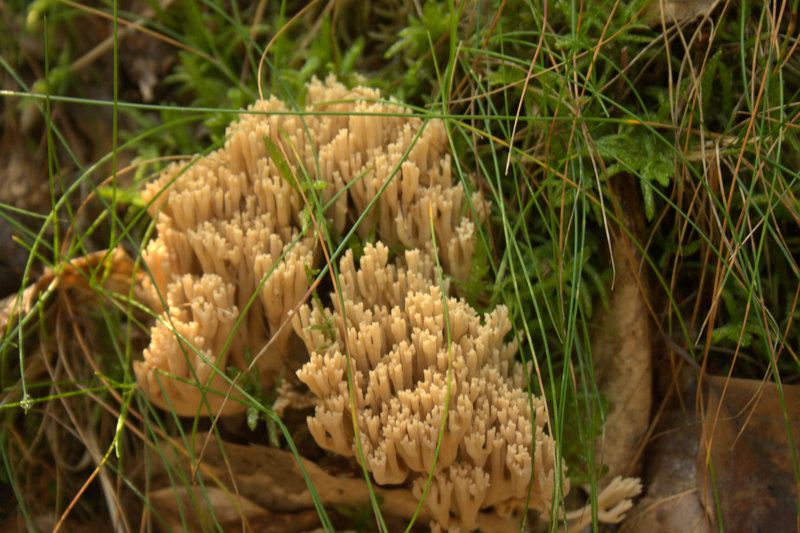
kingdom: Fungi
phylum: Basidiomycota
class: Agaricomycetes
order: Gomphales
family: Gomphaceae
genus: Ramaria
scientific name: Ramaria
